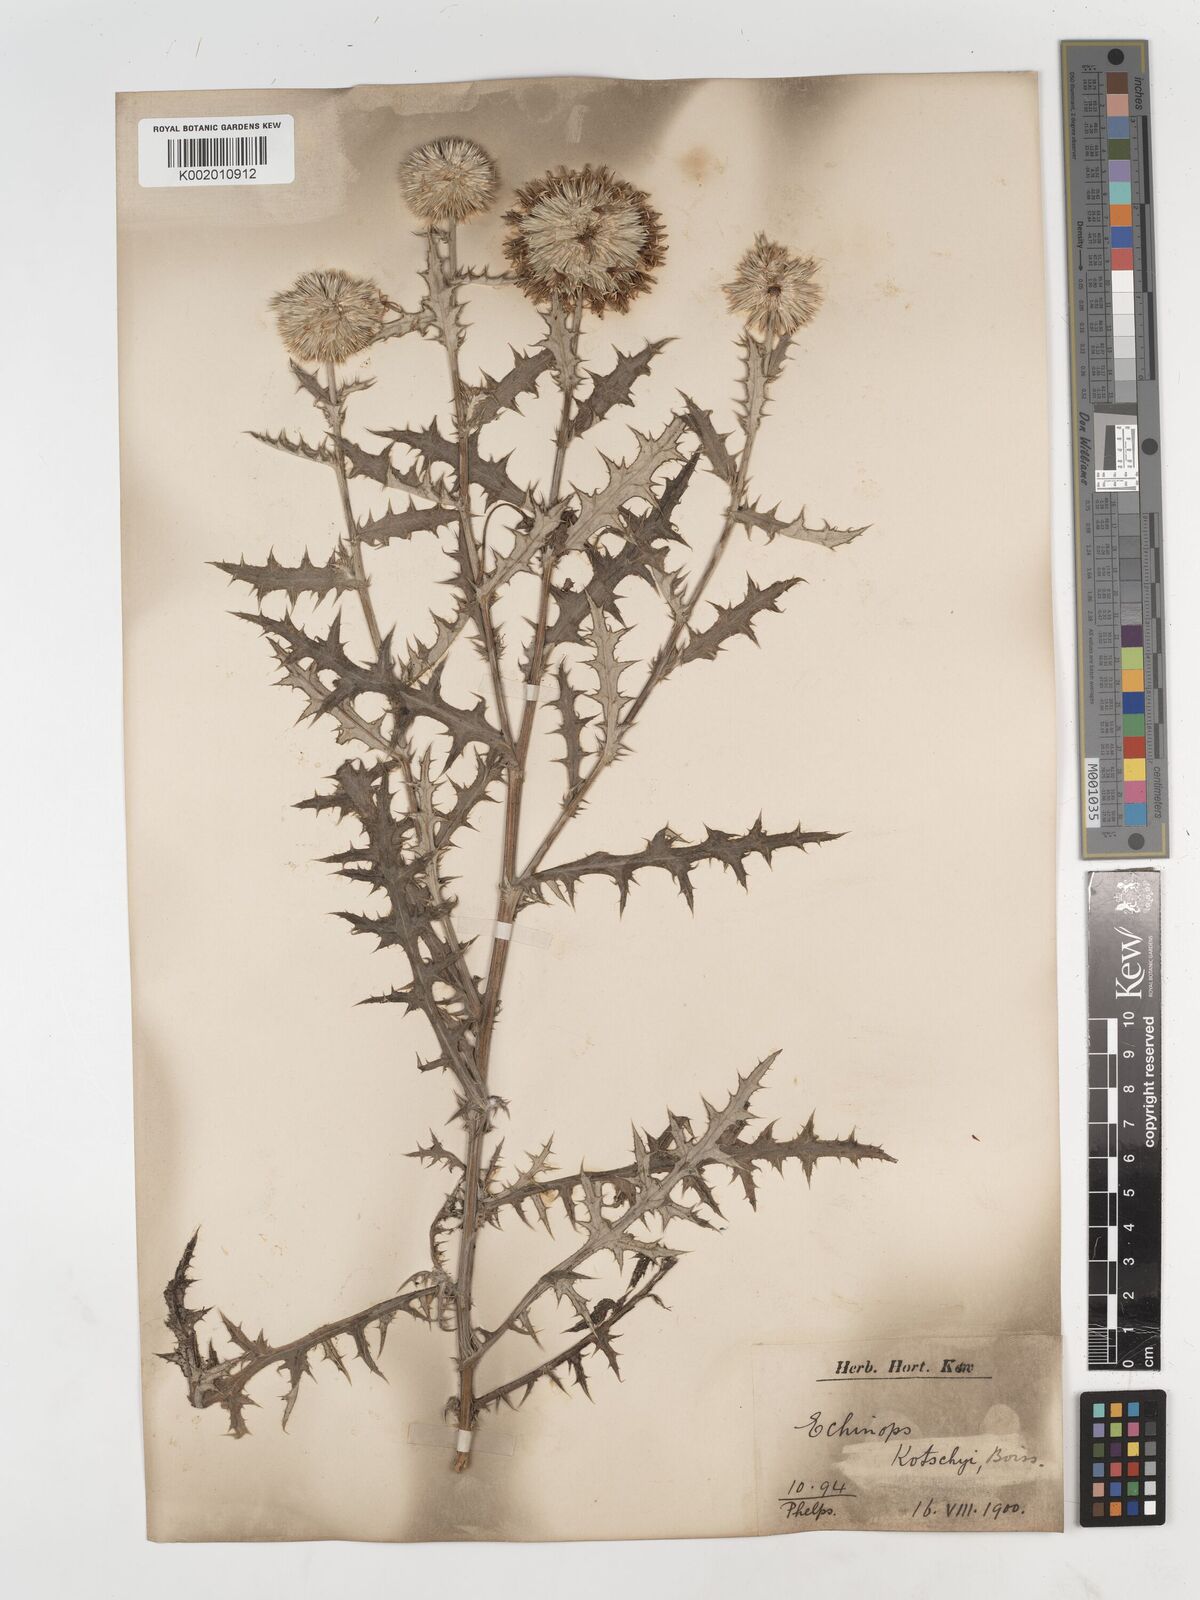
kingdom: Plantae
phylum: Tracheophyta
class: Magnoliopsida
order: Asterales
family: Asteraceae
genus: Echinops
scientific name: Echinops kotschyi
